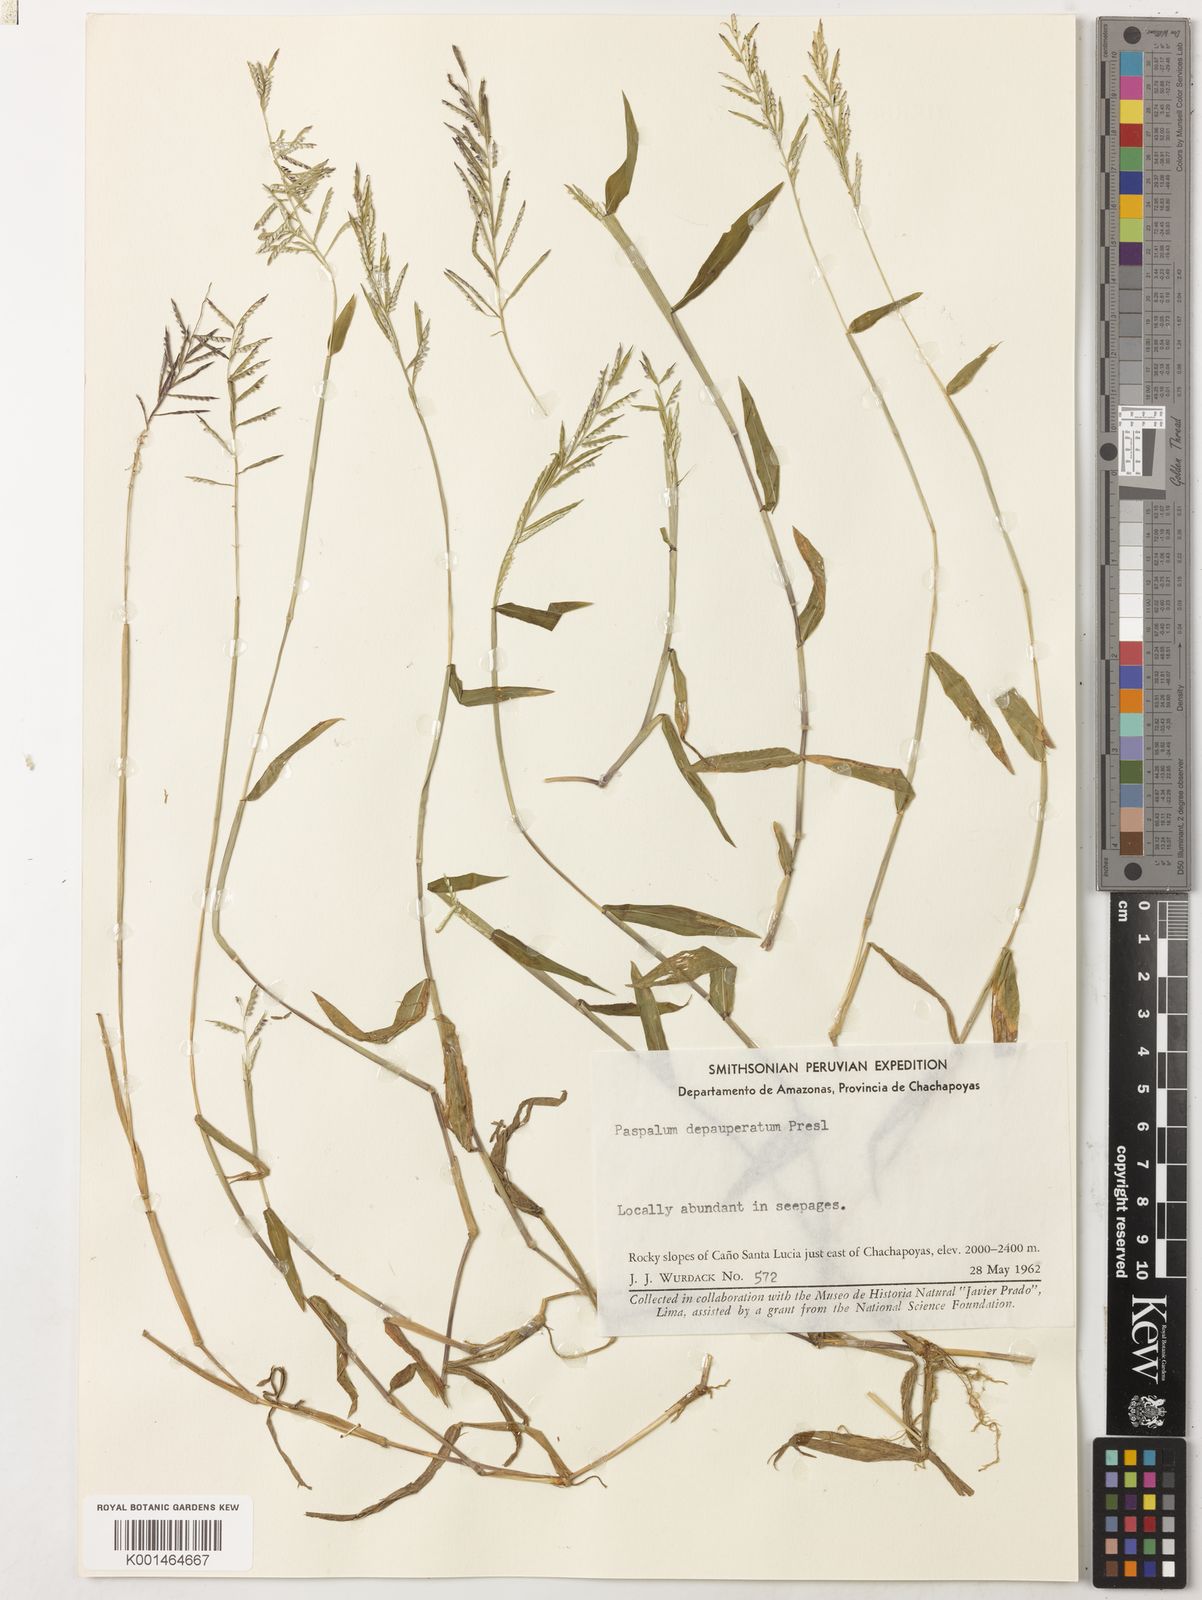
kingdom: Plantae
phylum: Tracheophyta
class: Liliopsida
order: Poales
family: Poaceae
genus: Paspalum
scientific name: Paspalum candidum
